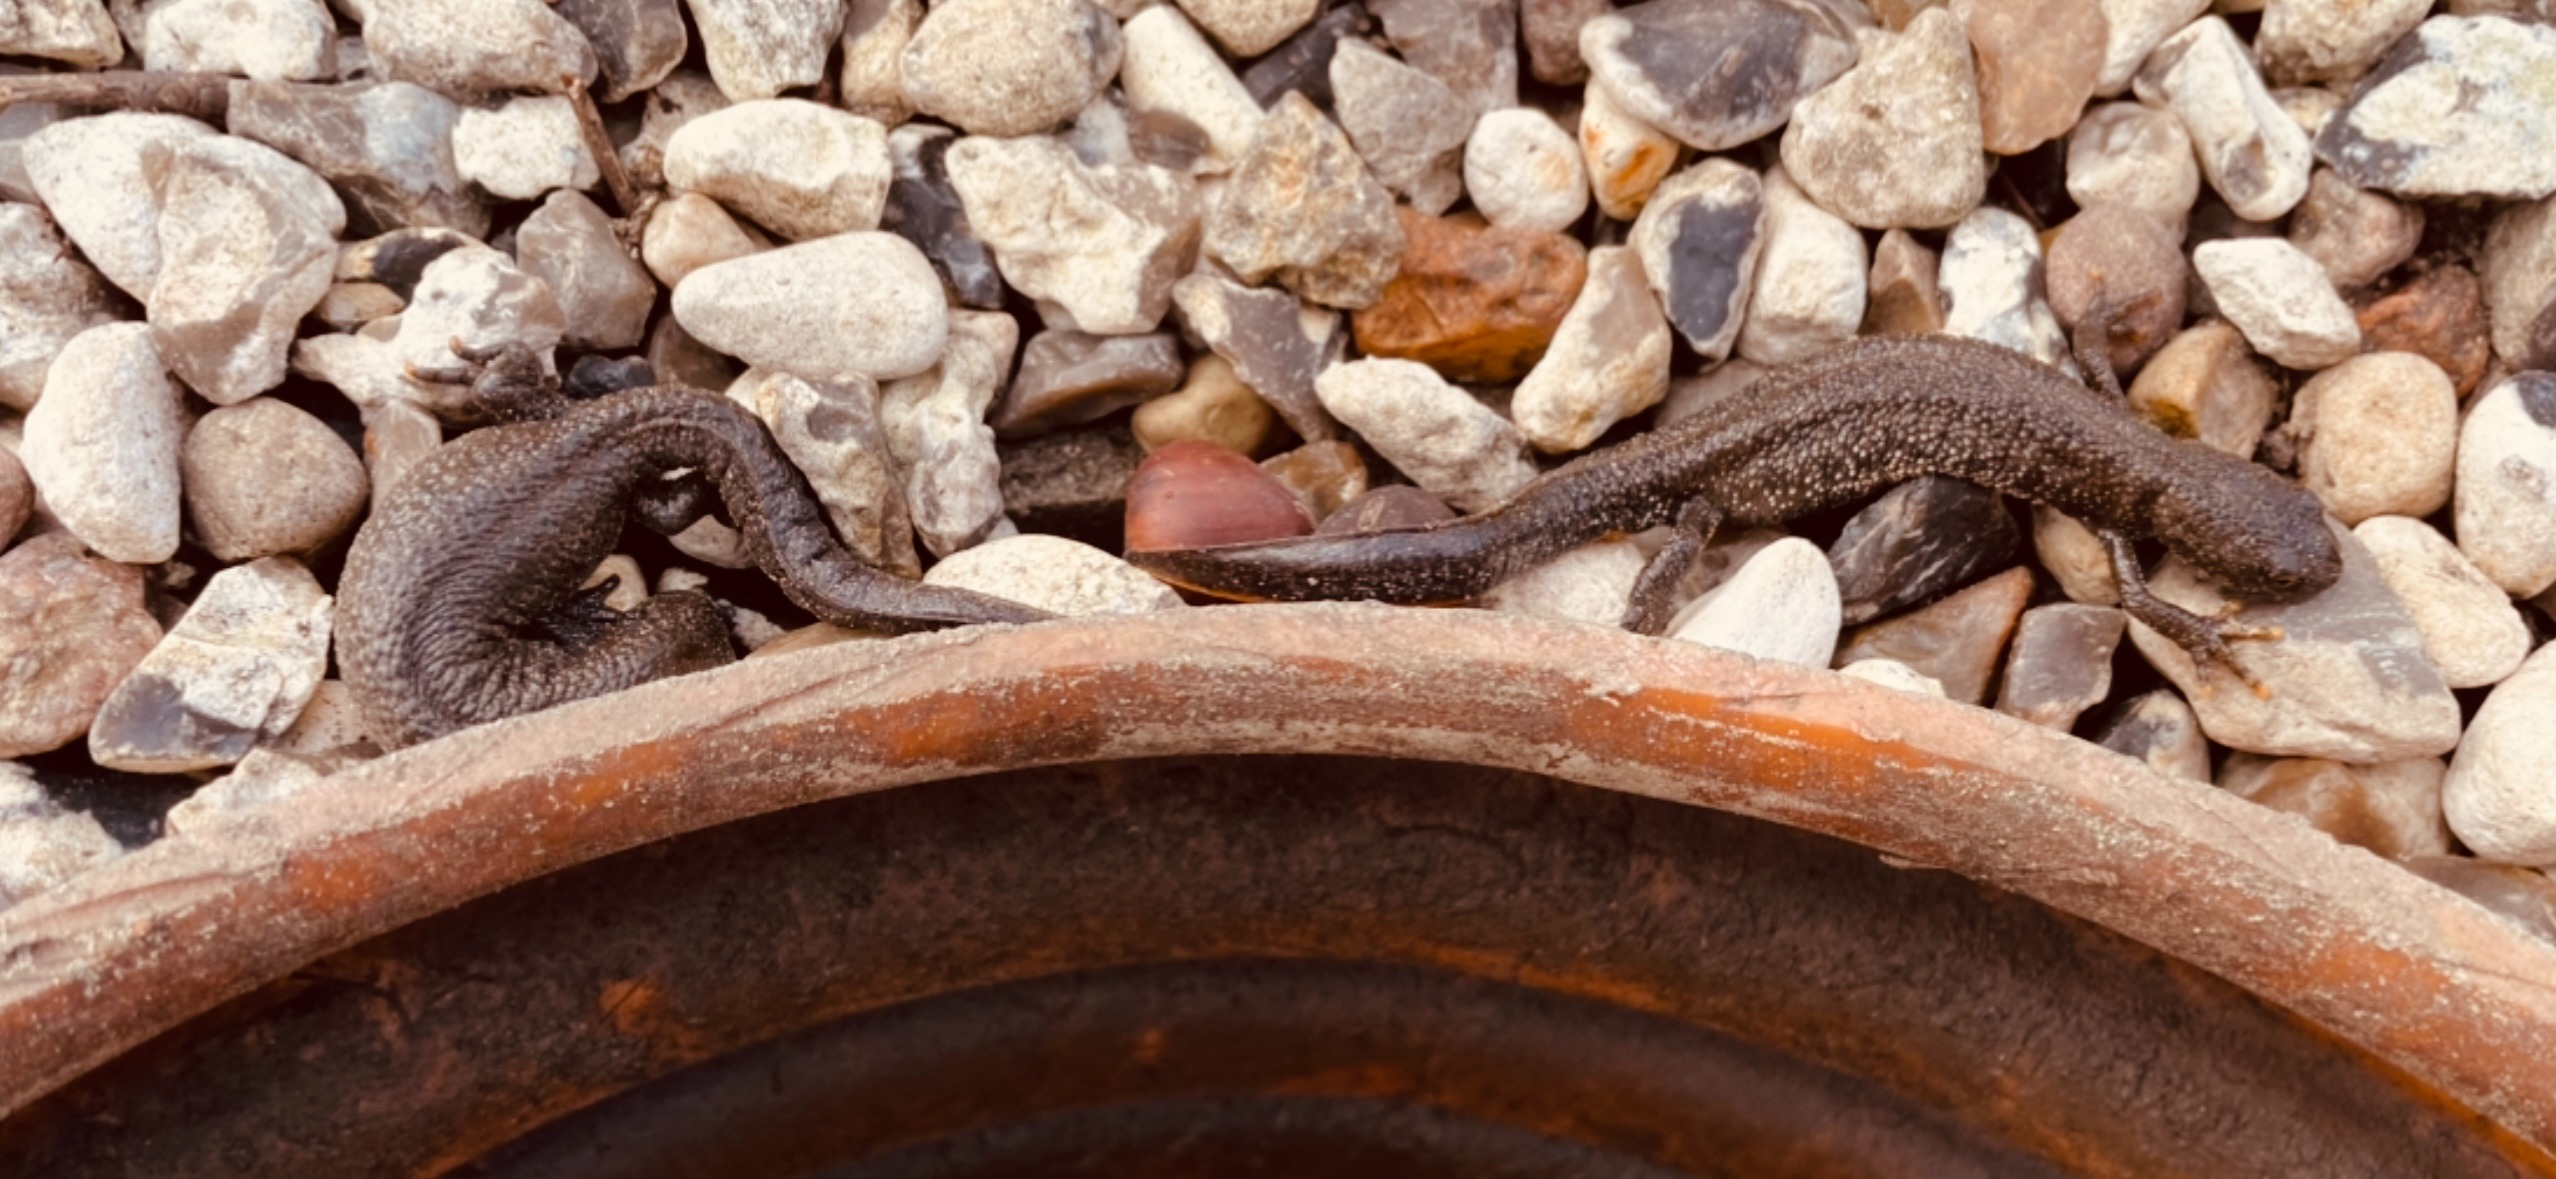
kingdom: Animalia
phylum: Chordata
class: Amphibia
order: Caudata
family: Salamandridae
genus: Triturus
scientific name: Triturus cristatus
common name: Stor vandsalamander
